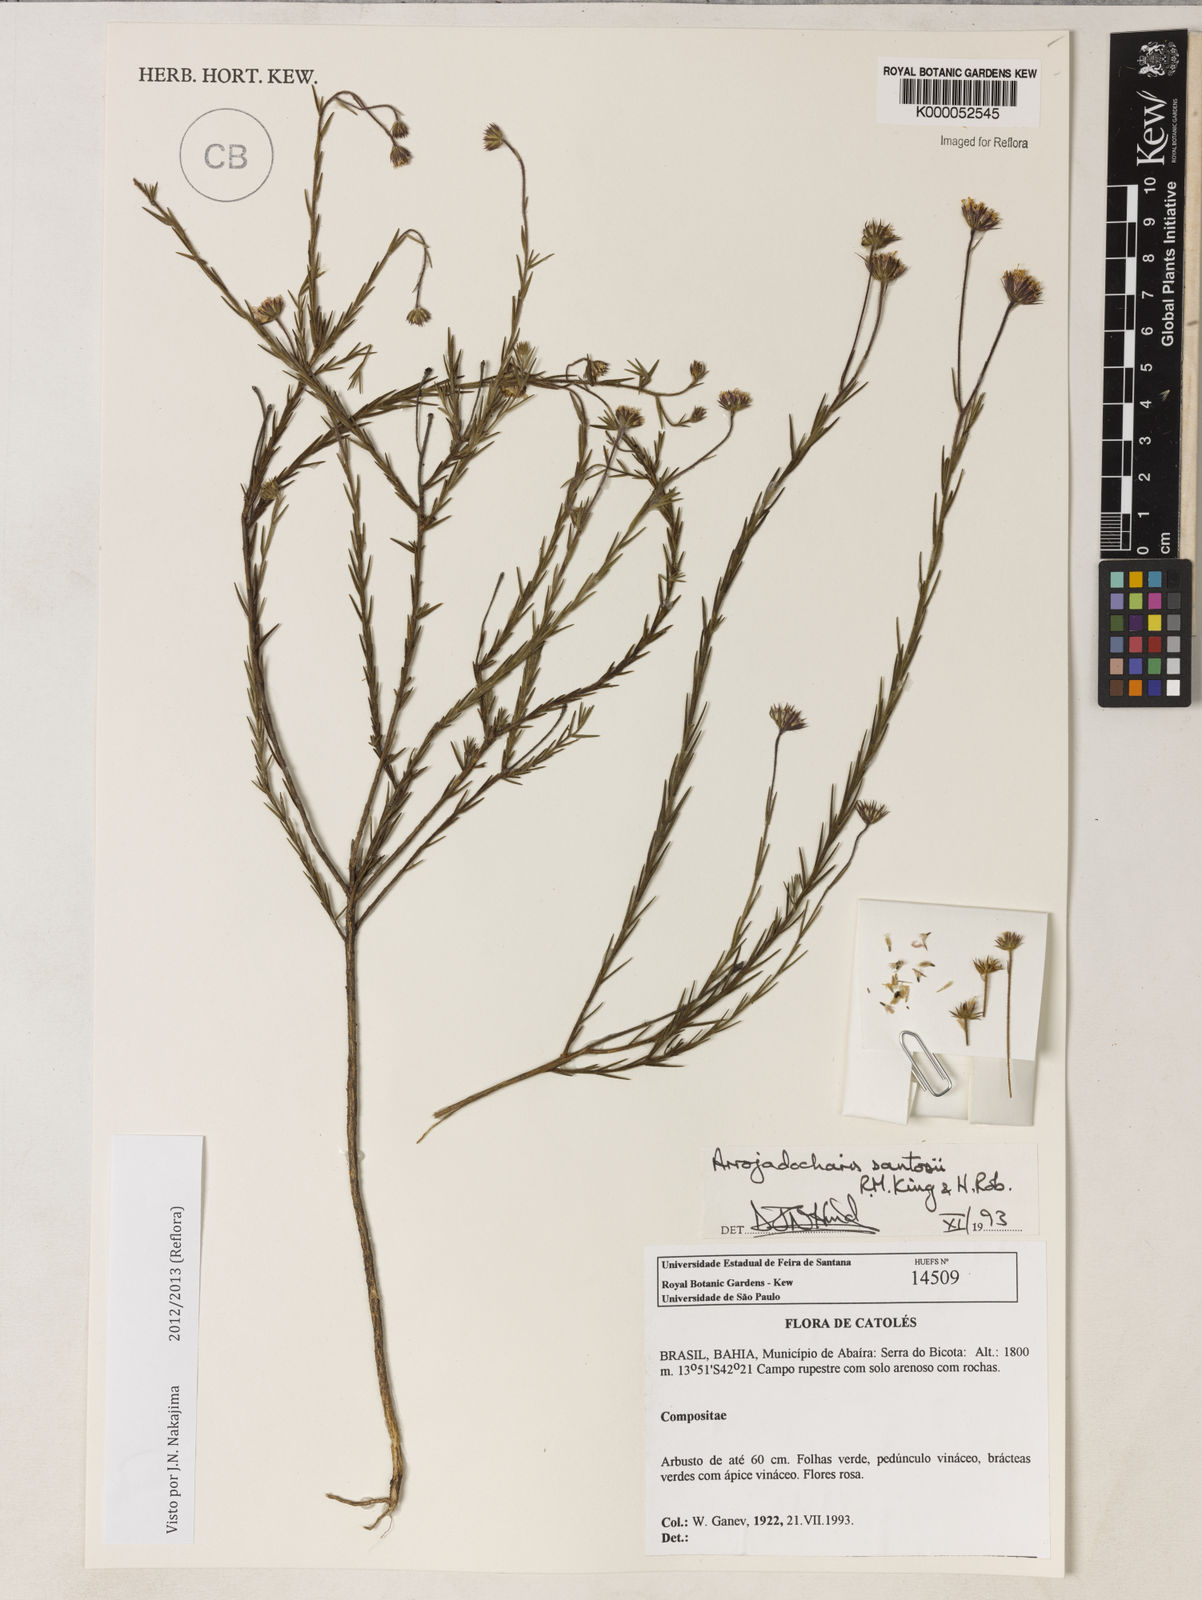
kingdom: Plantae
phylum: Tracheophyta
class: Magnoliopsida
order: Asterales
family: Asteraceae
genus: Arrojadocharis
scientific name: Arrojadocharis santosii
